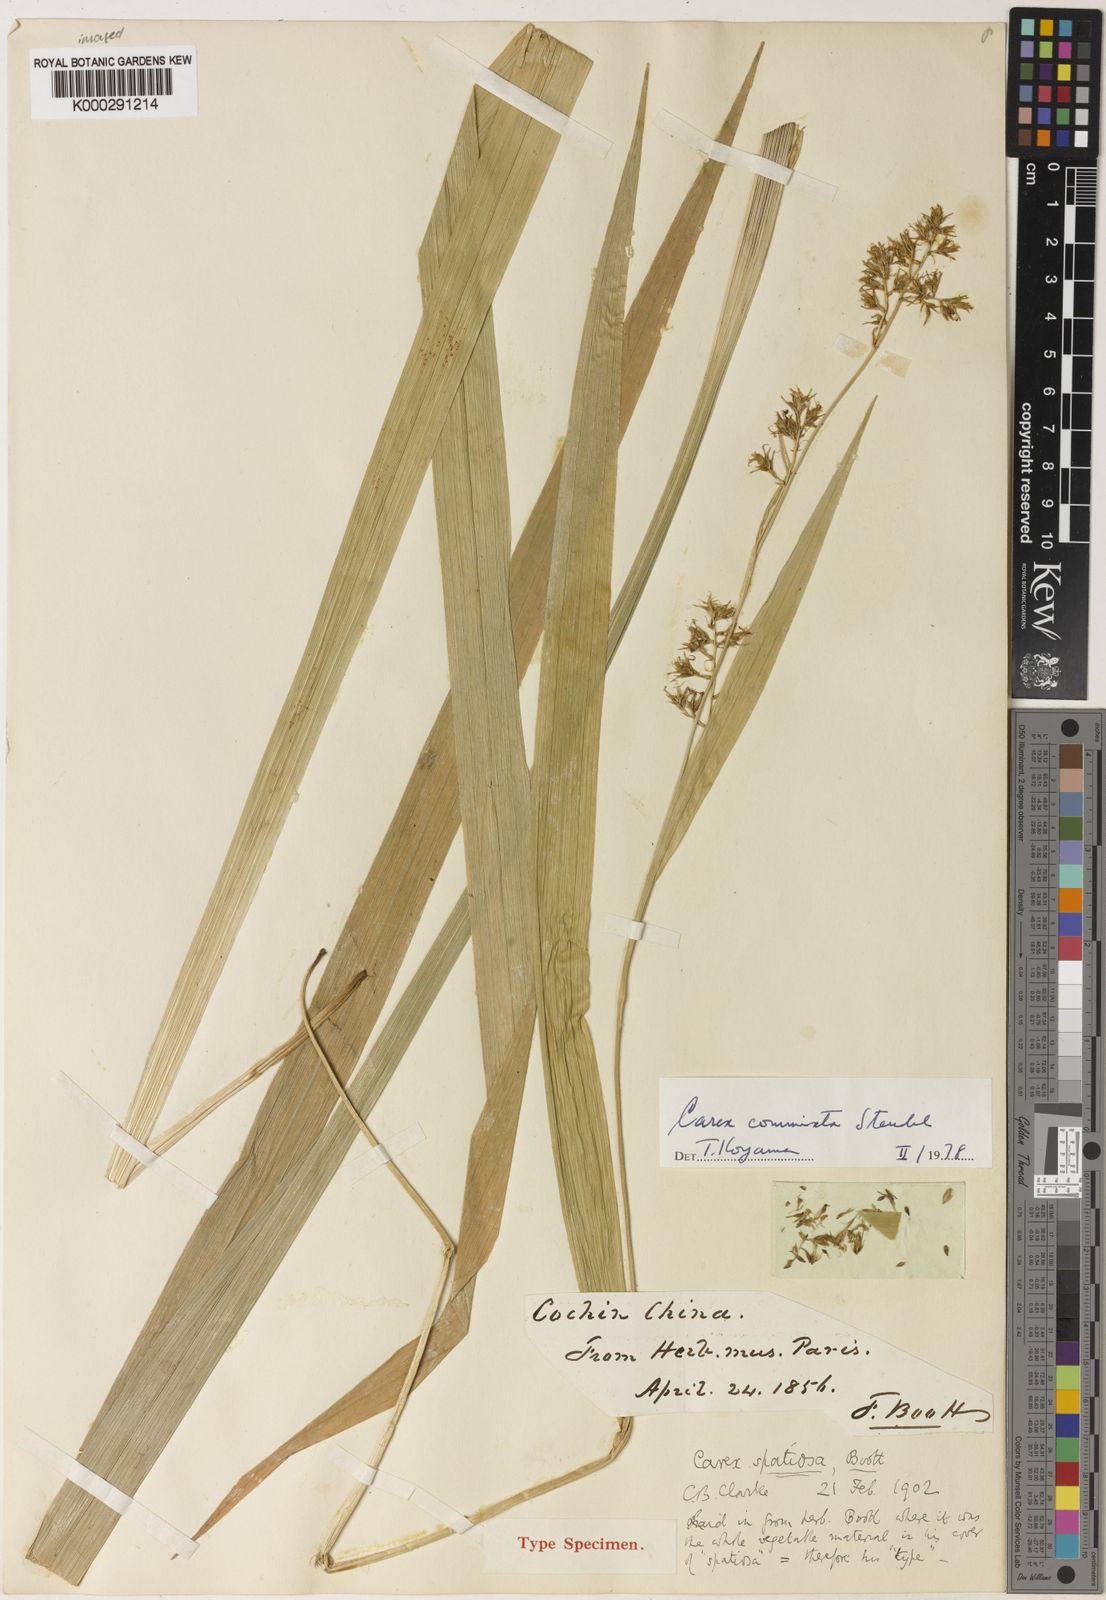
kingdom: Plantae
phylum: Tracheophyta
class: Liliopsida
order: Poales
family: Cyperaceae
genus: Carex
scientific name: Carex commixta
